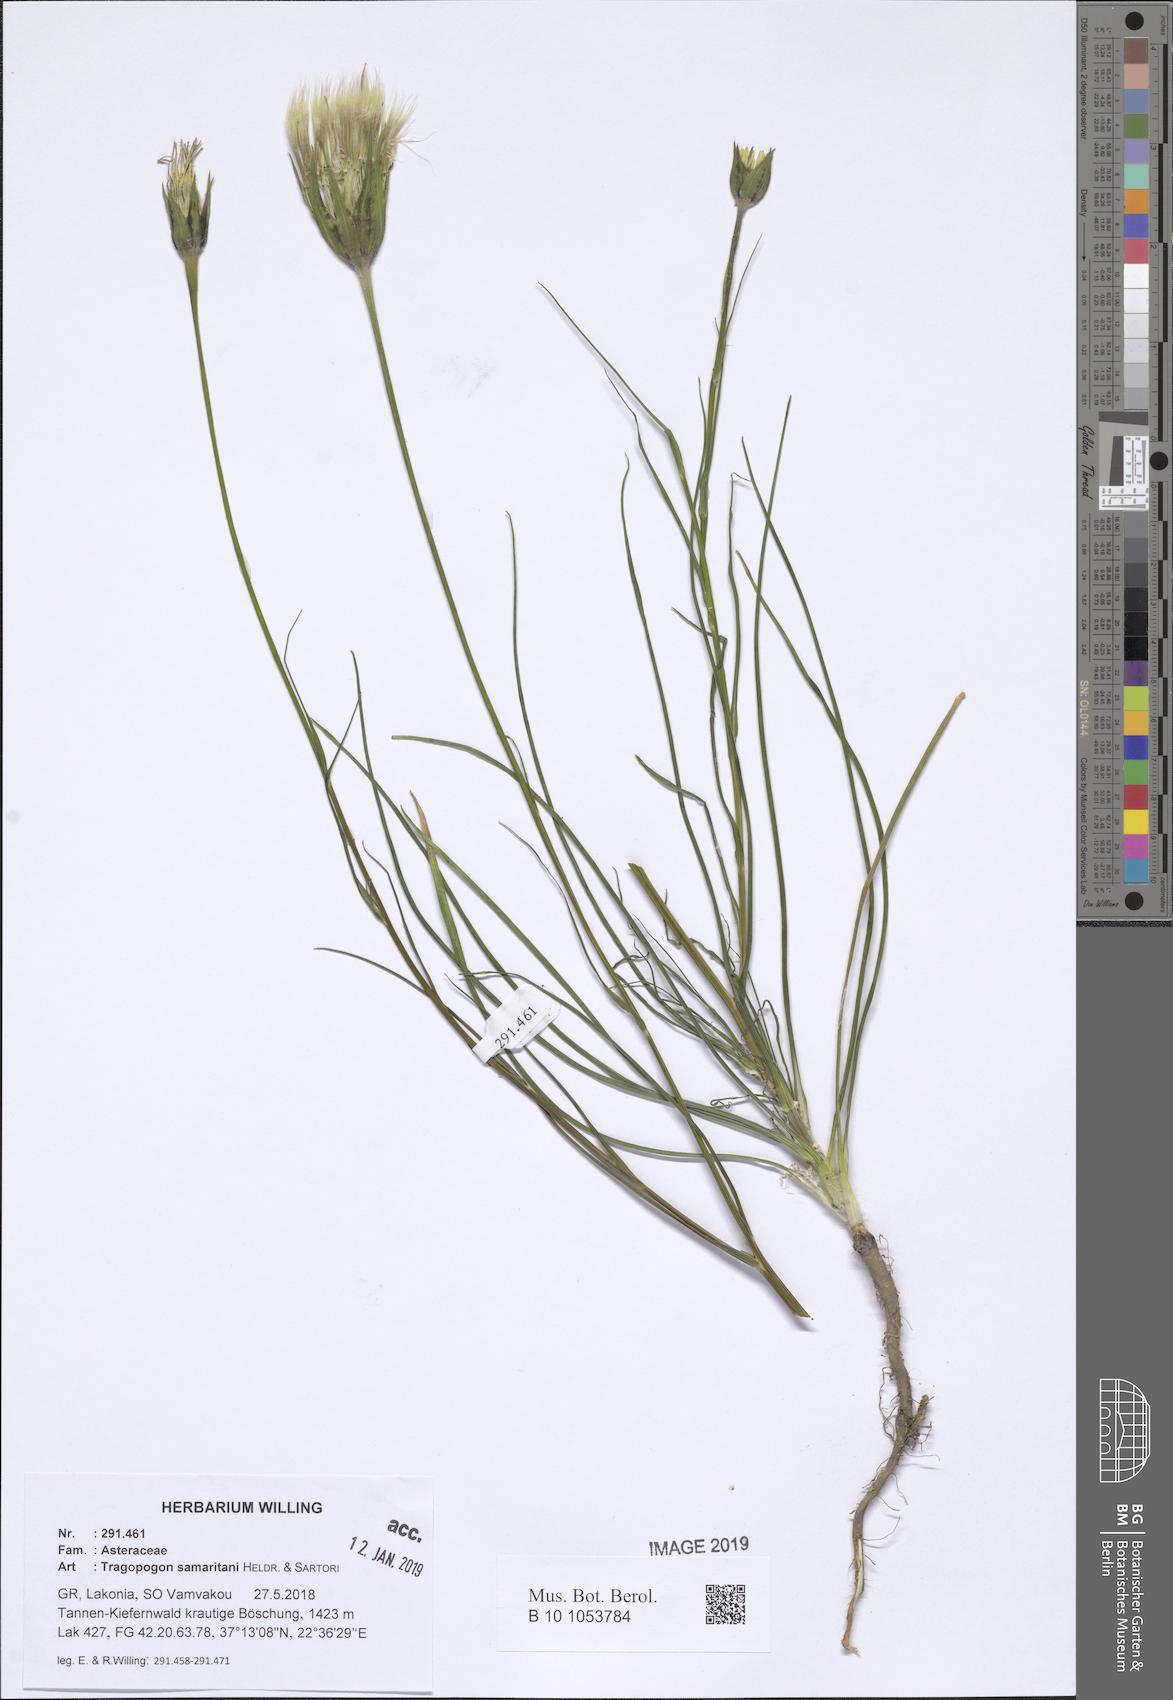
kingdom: Plantae
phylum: Tracheophyta
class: Magnoliopsida
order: Asterales
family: Asteraceae
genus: Tragopogon
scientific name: Tragopogon samaritani
